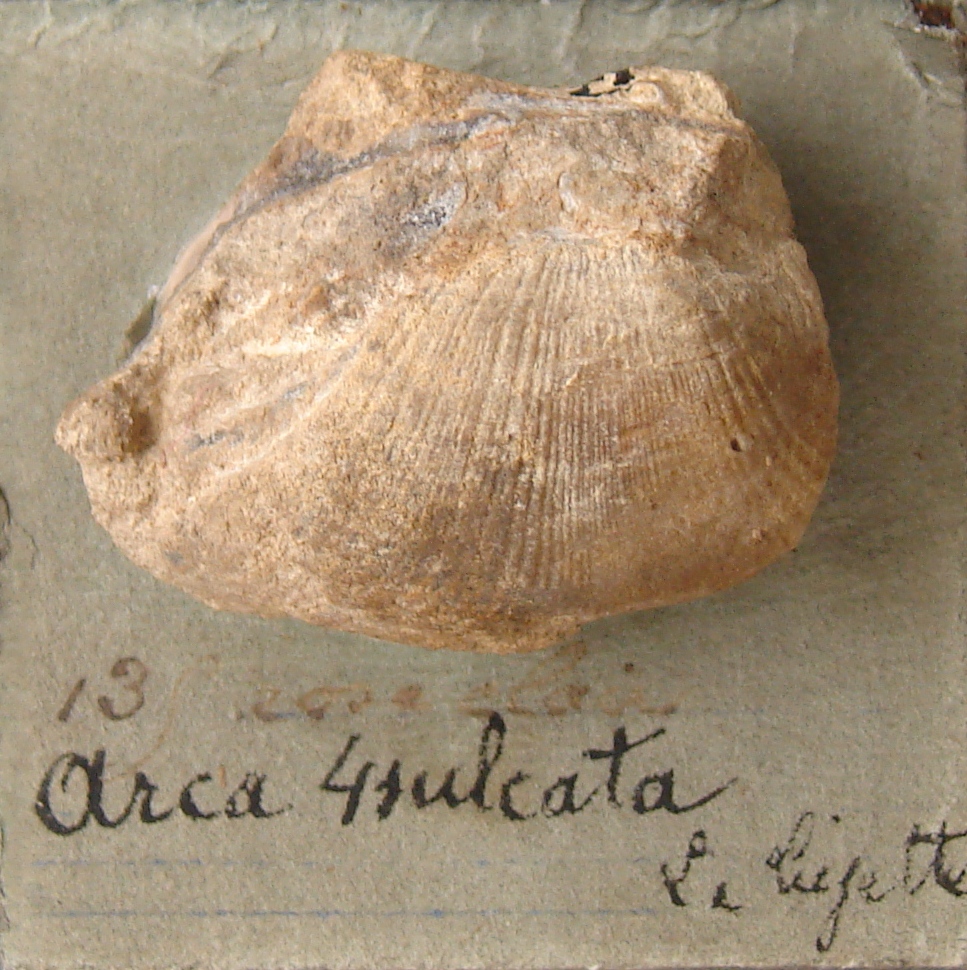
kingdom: Animalia
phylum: Mollusca
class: Bivalvia
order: Arcida
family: Arcidae
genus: Arca
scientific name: Arca quadrisulcata
